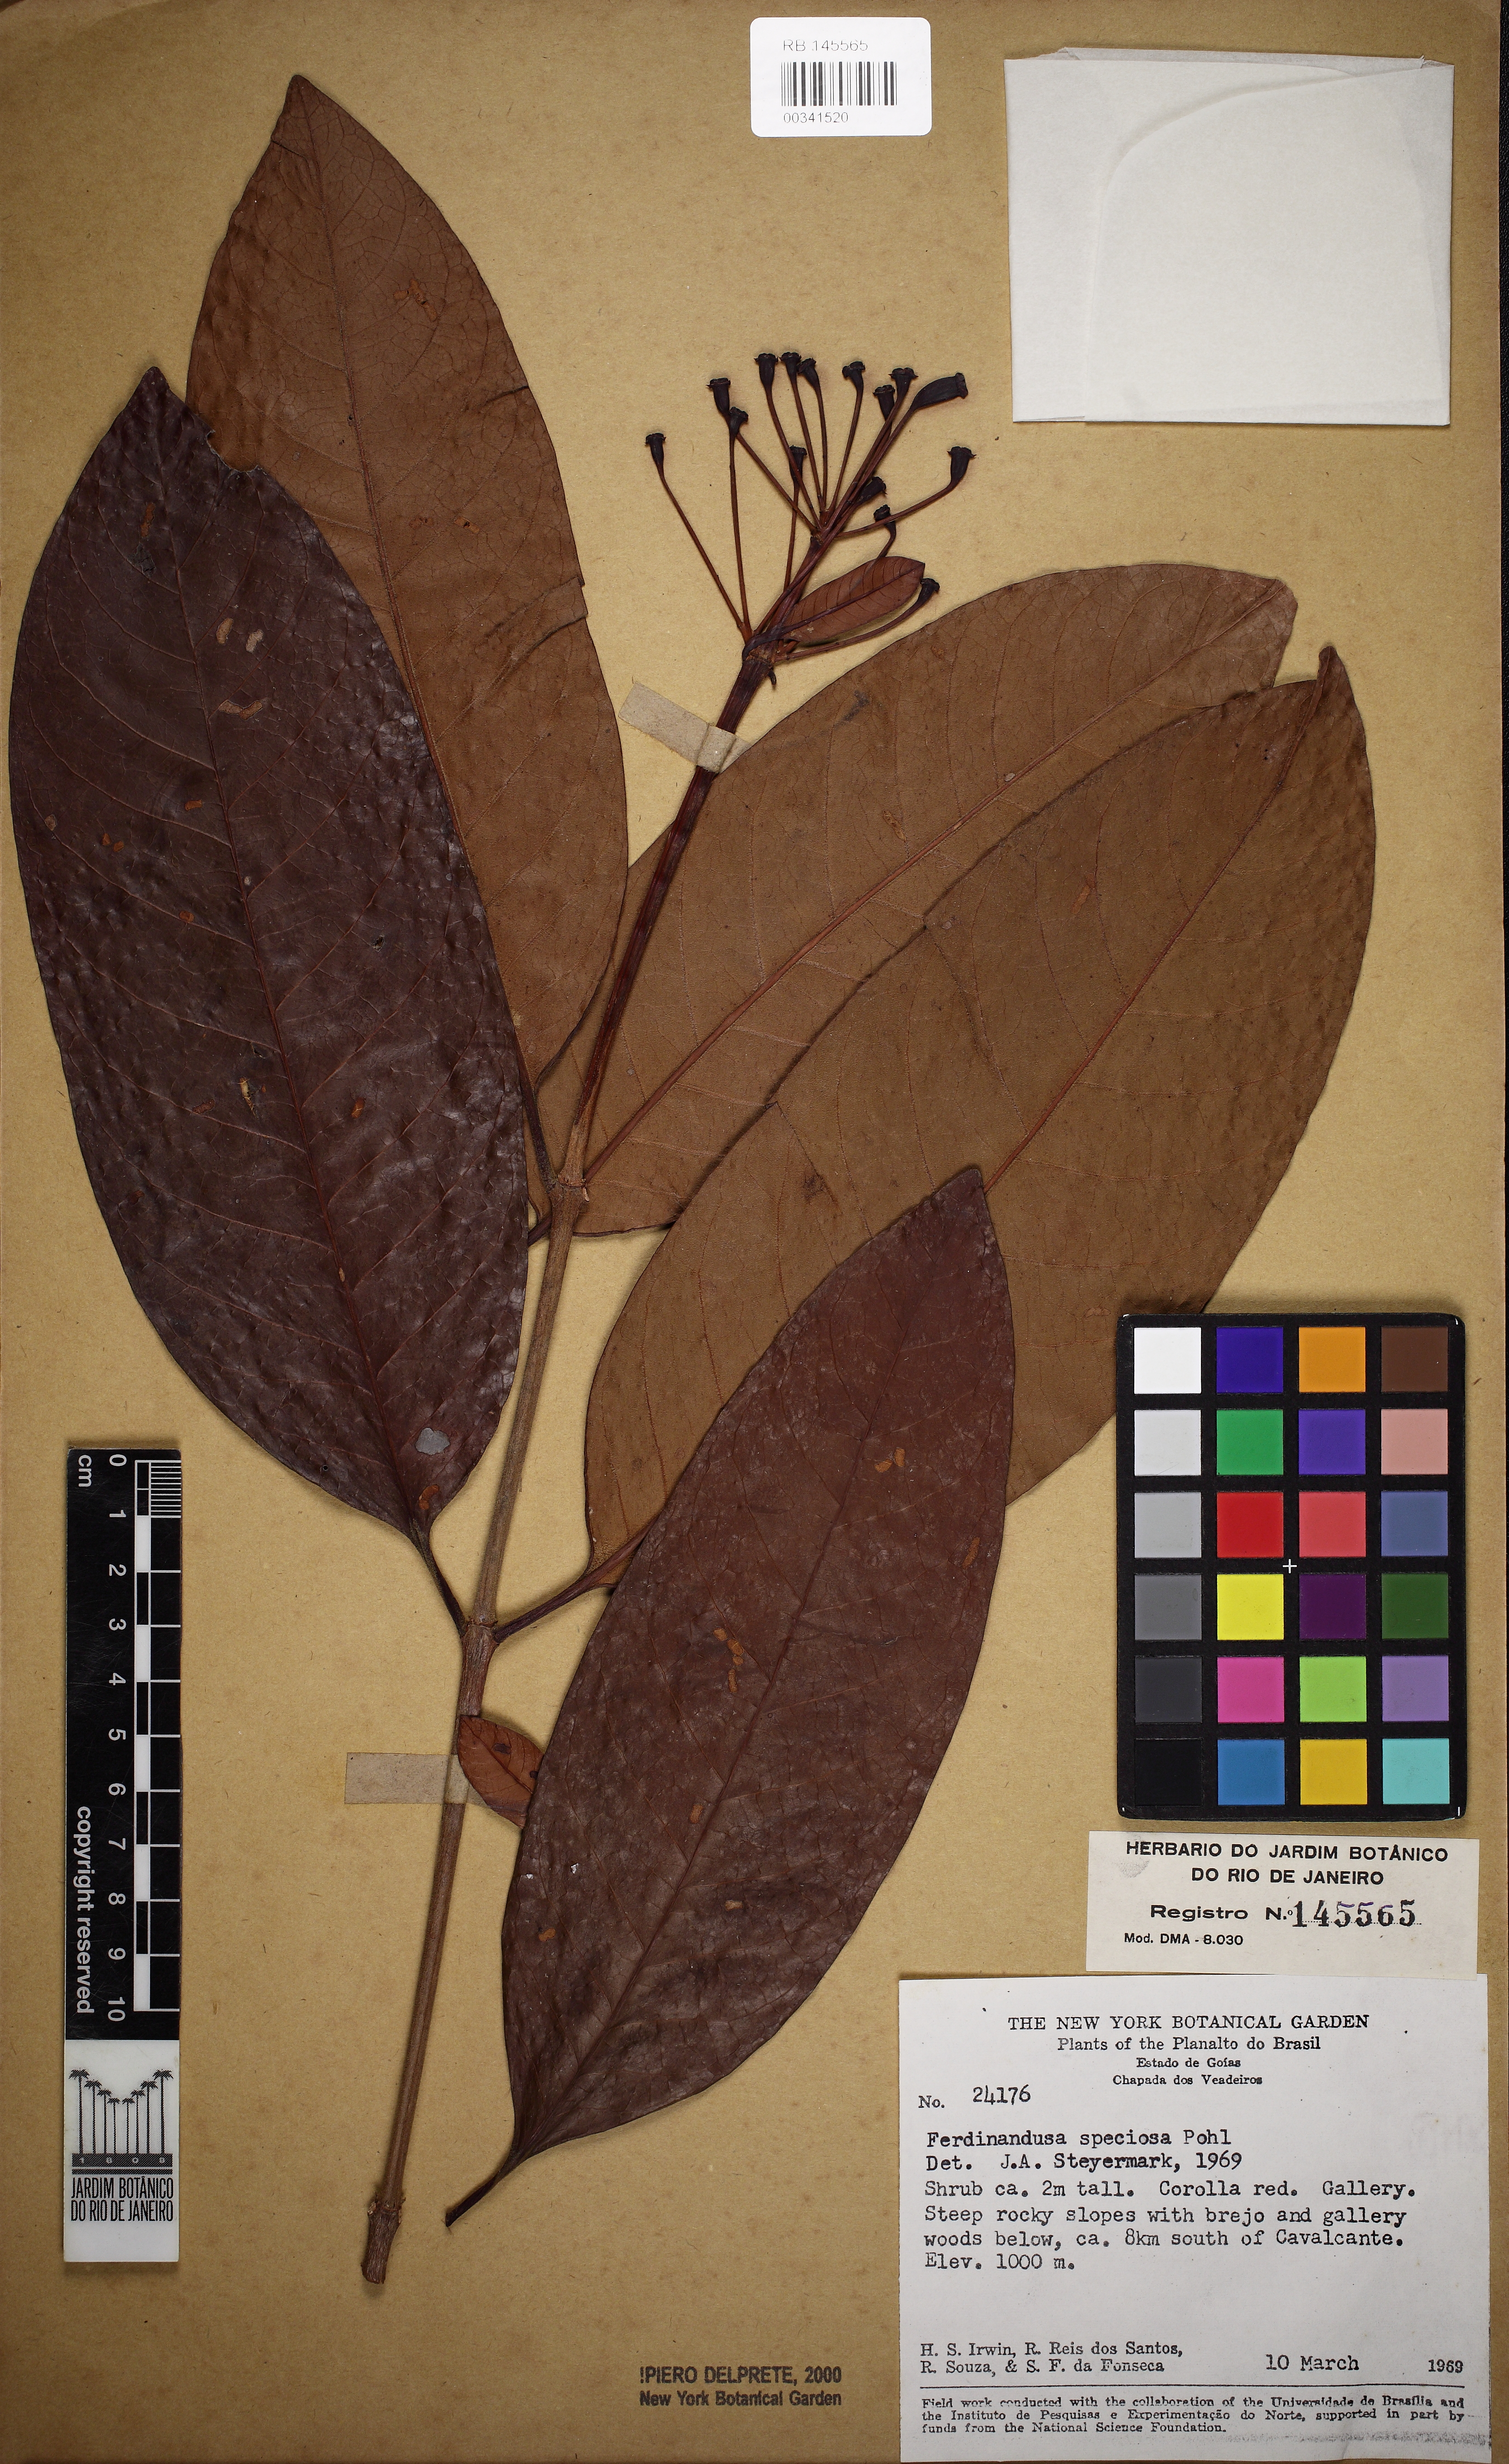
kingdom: Plantae
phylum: Tracheophyta
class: Magnoliopsida
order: Gentianales
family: Rubiaceae
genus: Ferdinandusa
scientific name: Ferdinandusa speciosa
